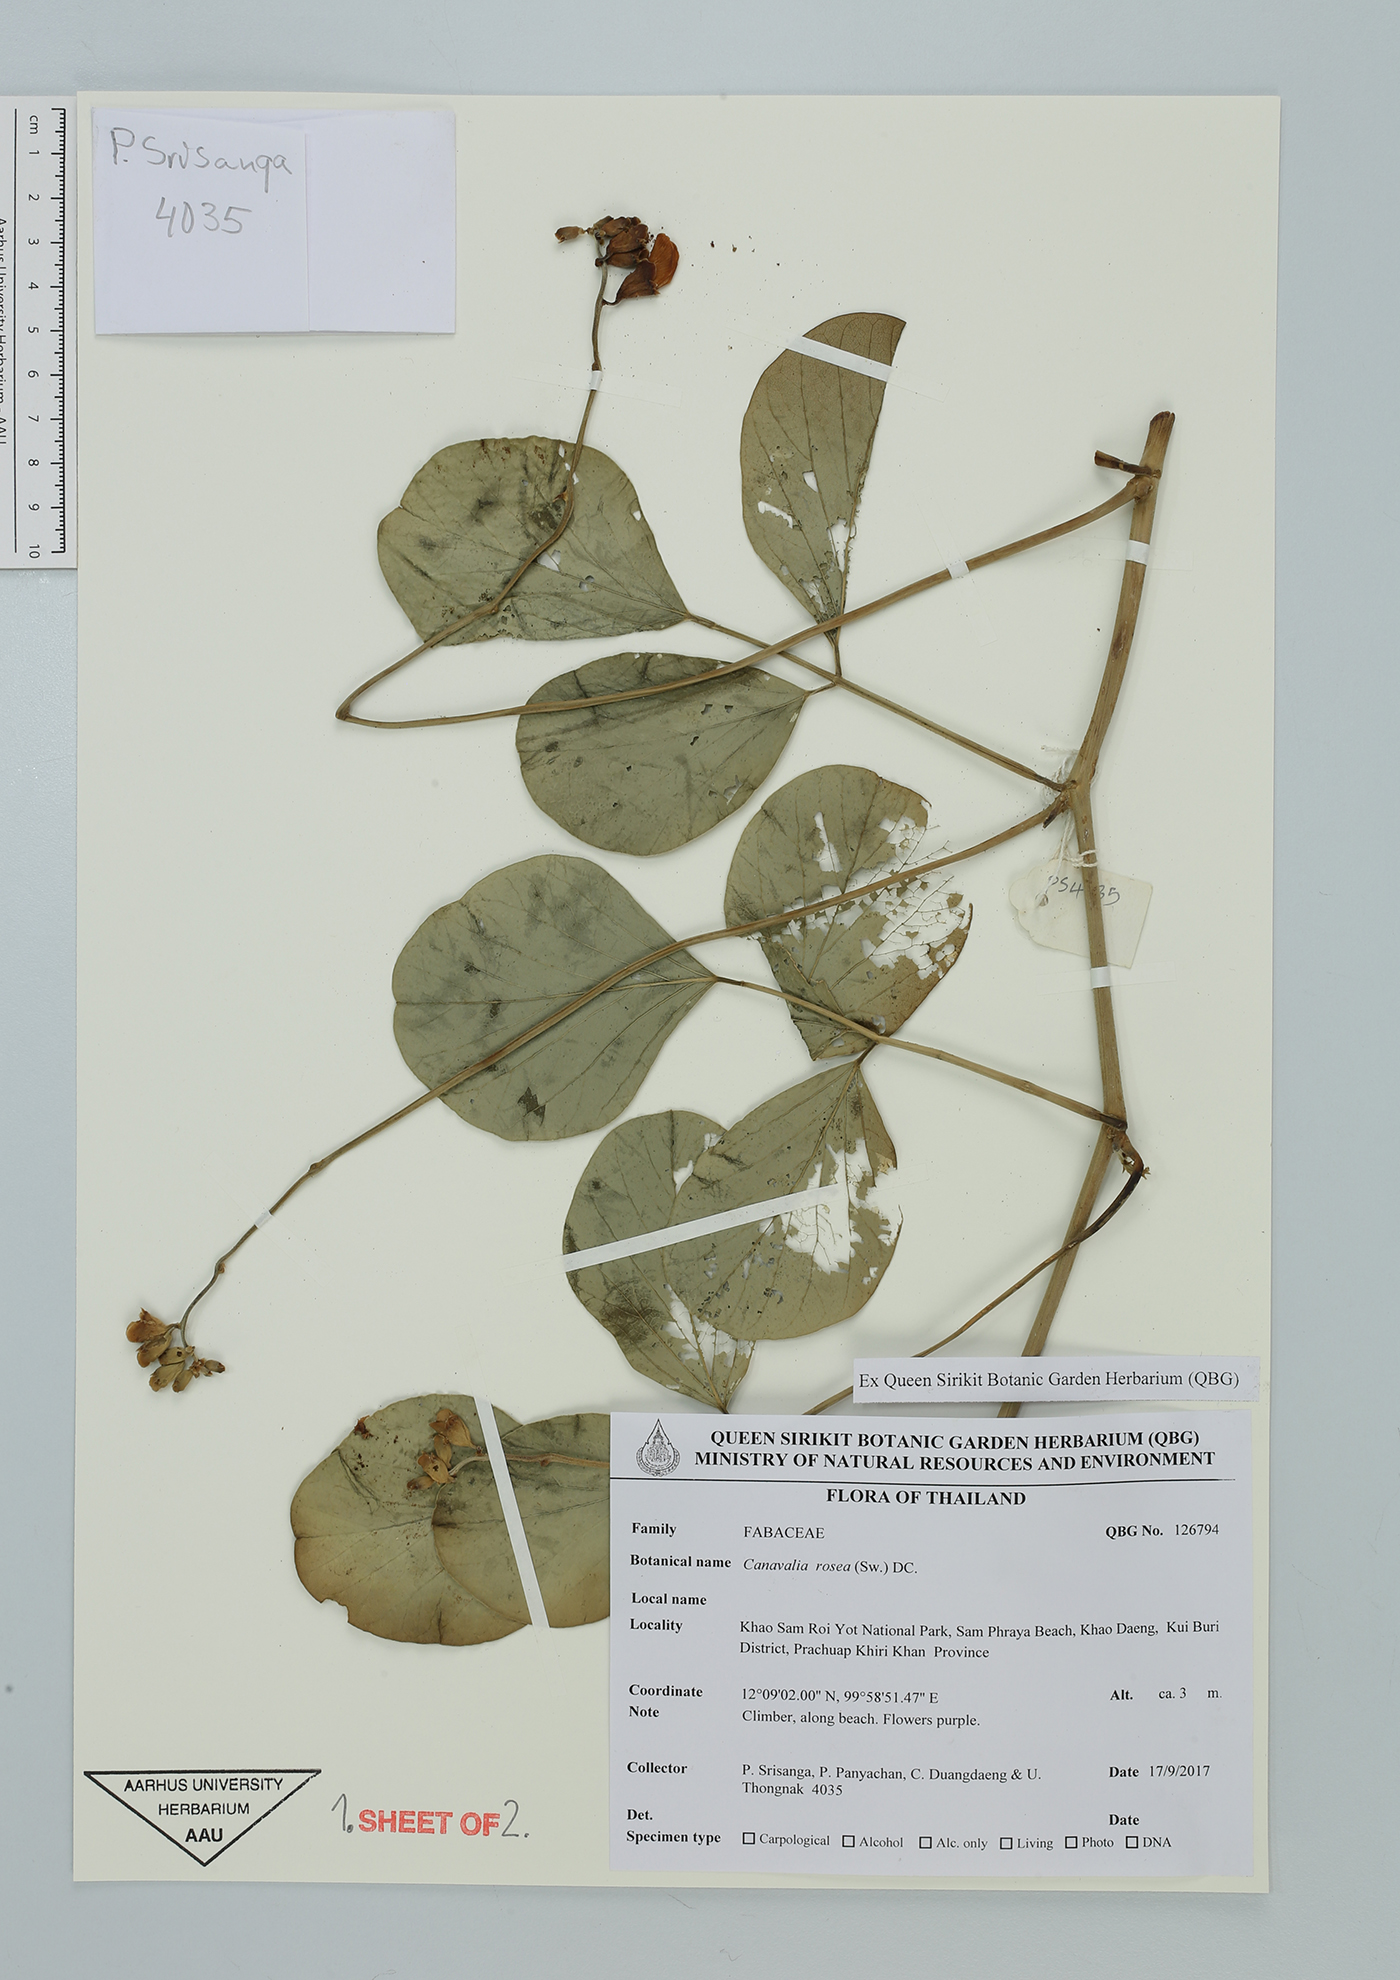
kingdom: Plantae
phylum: Tracheophyta
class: Magnoliopsida
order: Fabales
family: Fabaceae
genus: Canavalia
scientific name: Canavalia rosea
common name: Beach-bean
